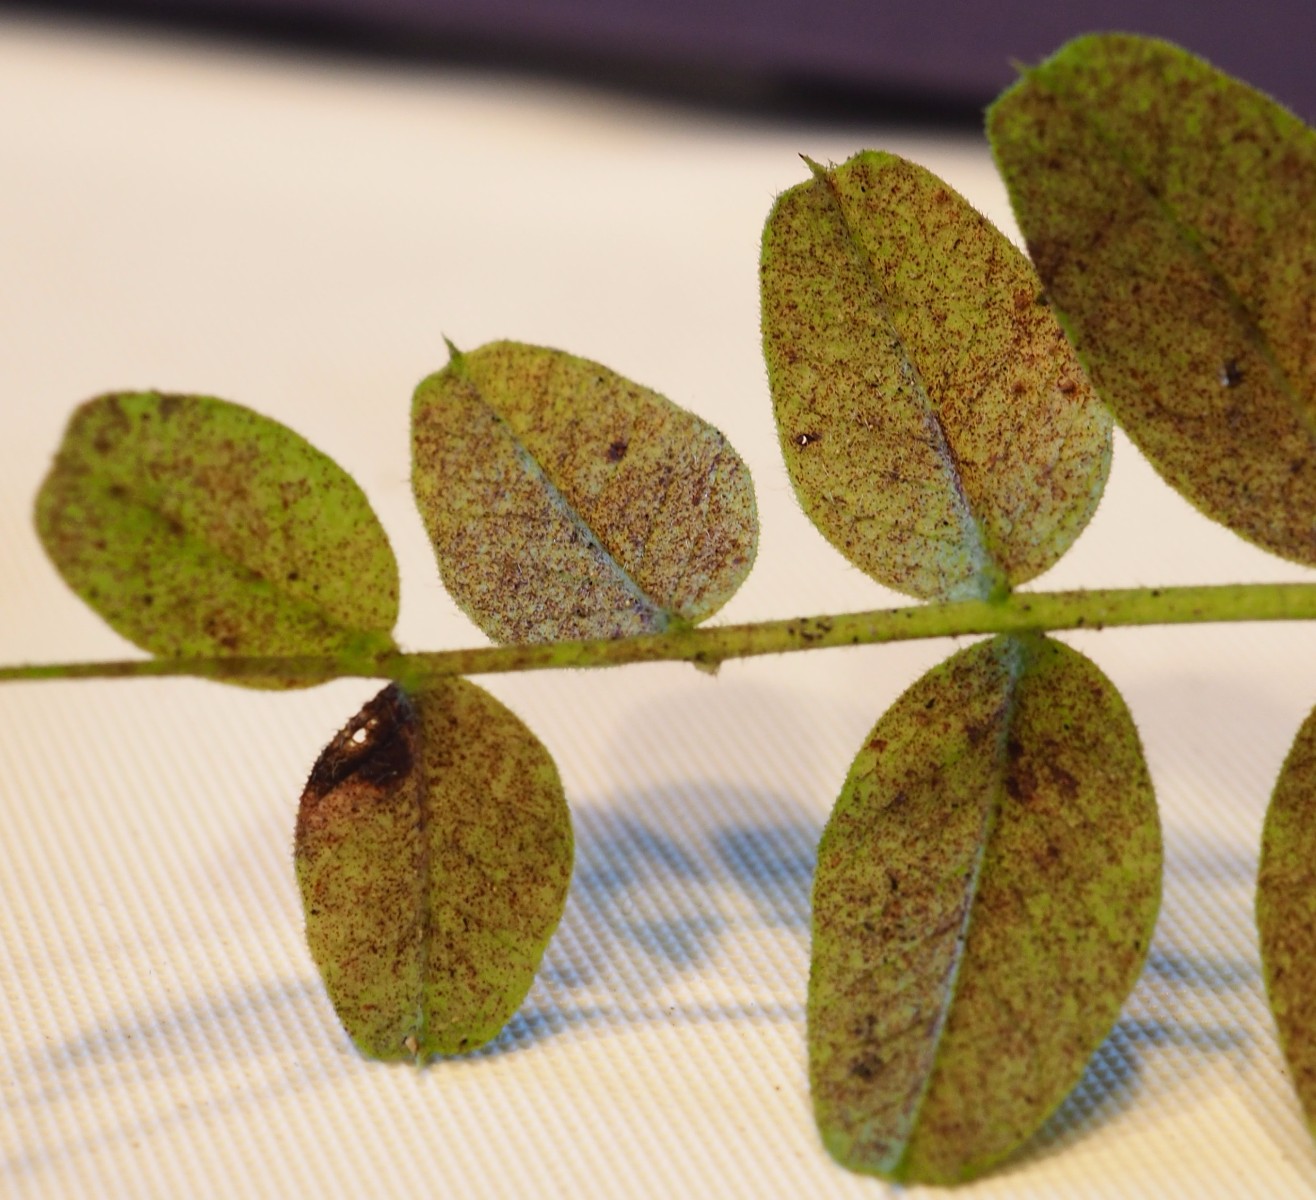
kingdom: Fungi
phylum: Basidiomycota
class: Pucciniomycetes
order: Pucciniales
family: Pucciniaceae
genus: Uromyces
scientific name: Uromyces fischeri-eduardi
